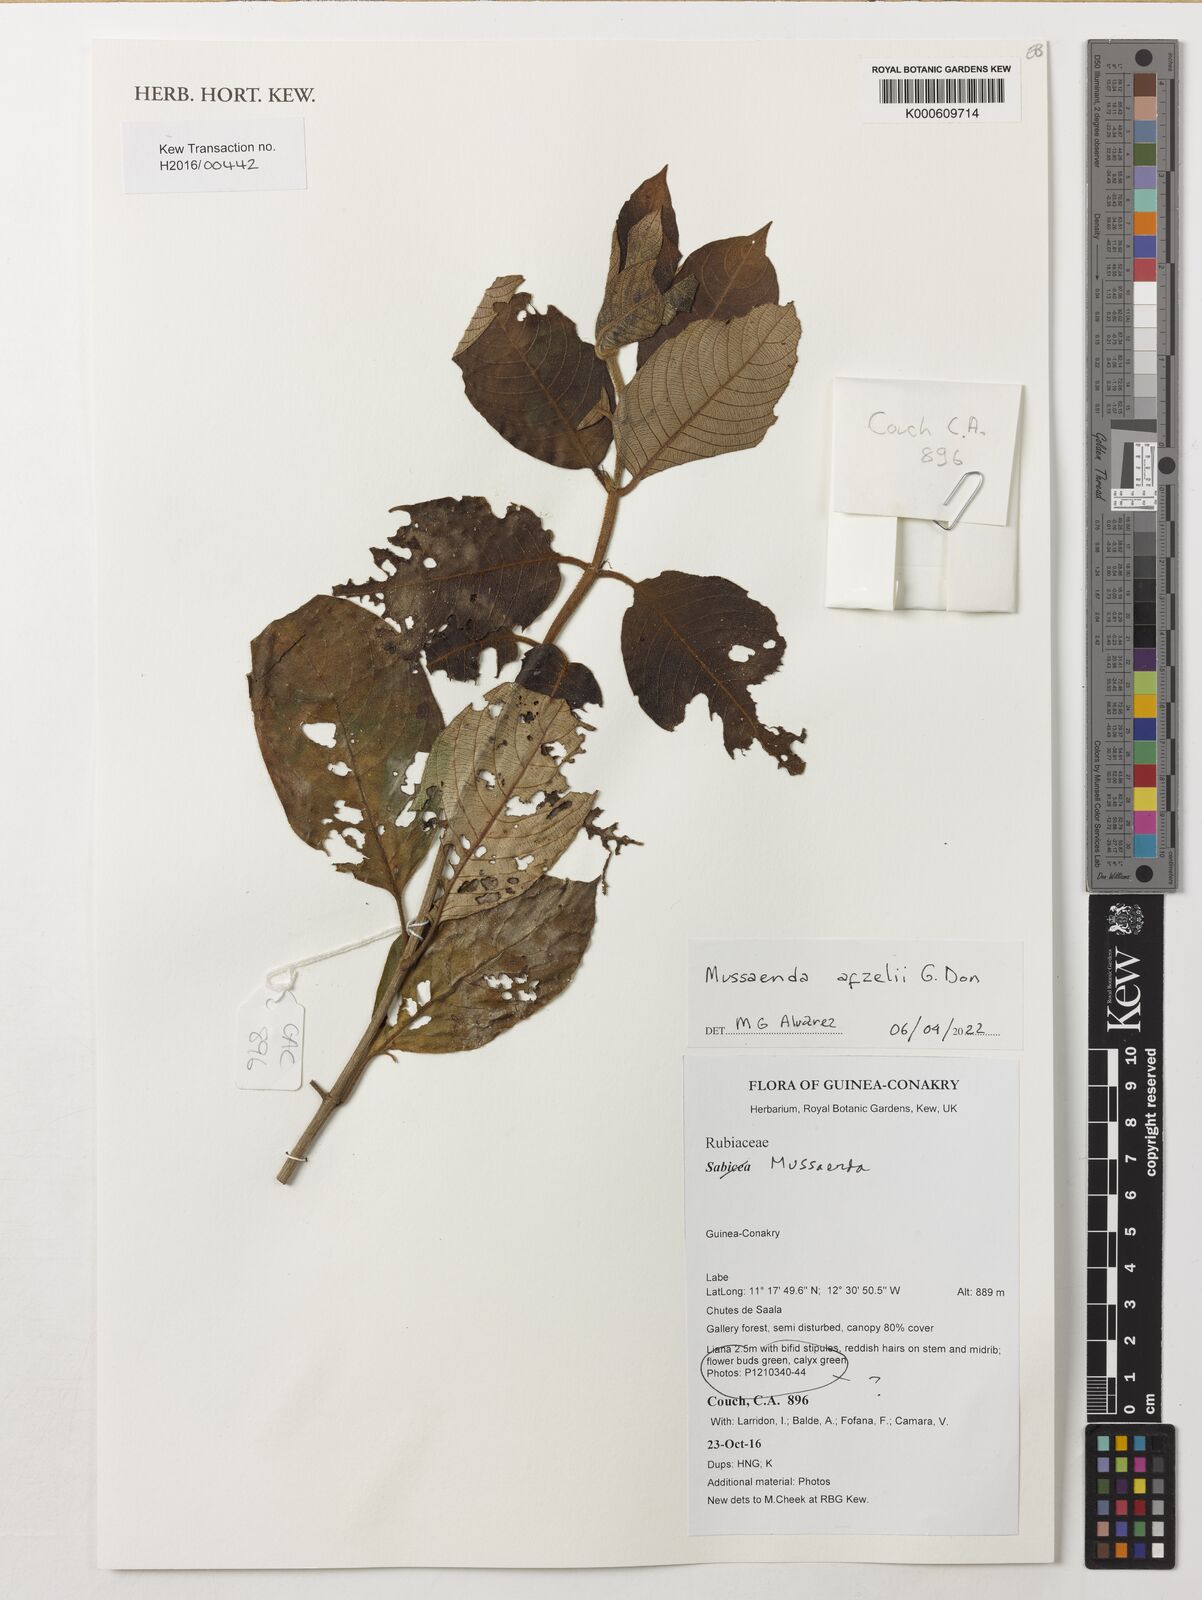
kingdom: Plantae
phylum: Tracheophyta
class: Magnoliopsida
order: Gentianales
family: Rubiaceae
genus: Mussaenda
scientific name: Mussaenda afzelii
